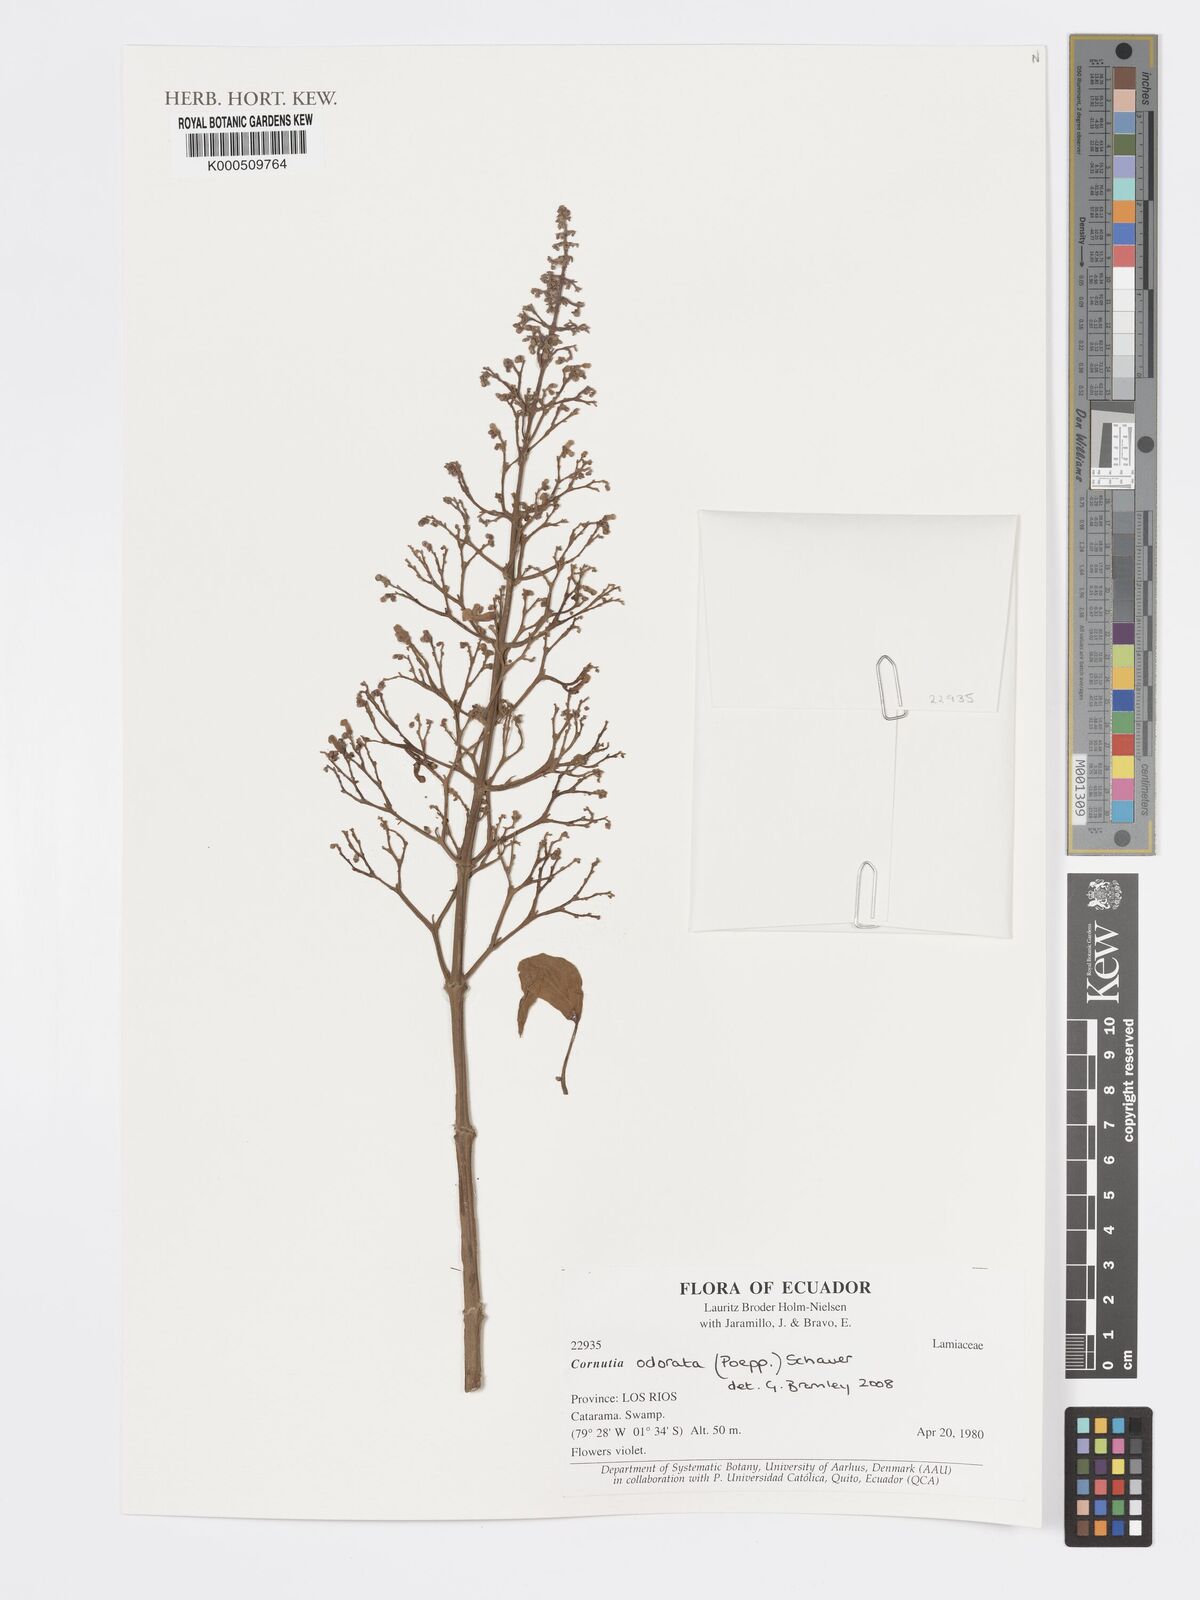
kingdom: Plantae
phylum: Tracheophyta
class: Magnoliopsida
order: Lamiales
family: Lamiaceae
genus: Cornutia
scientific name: Cornutia odorata
